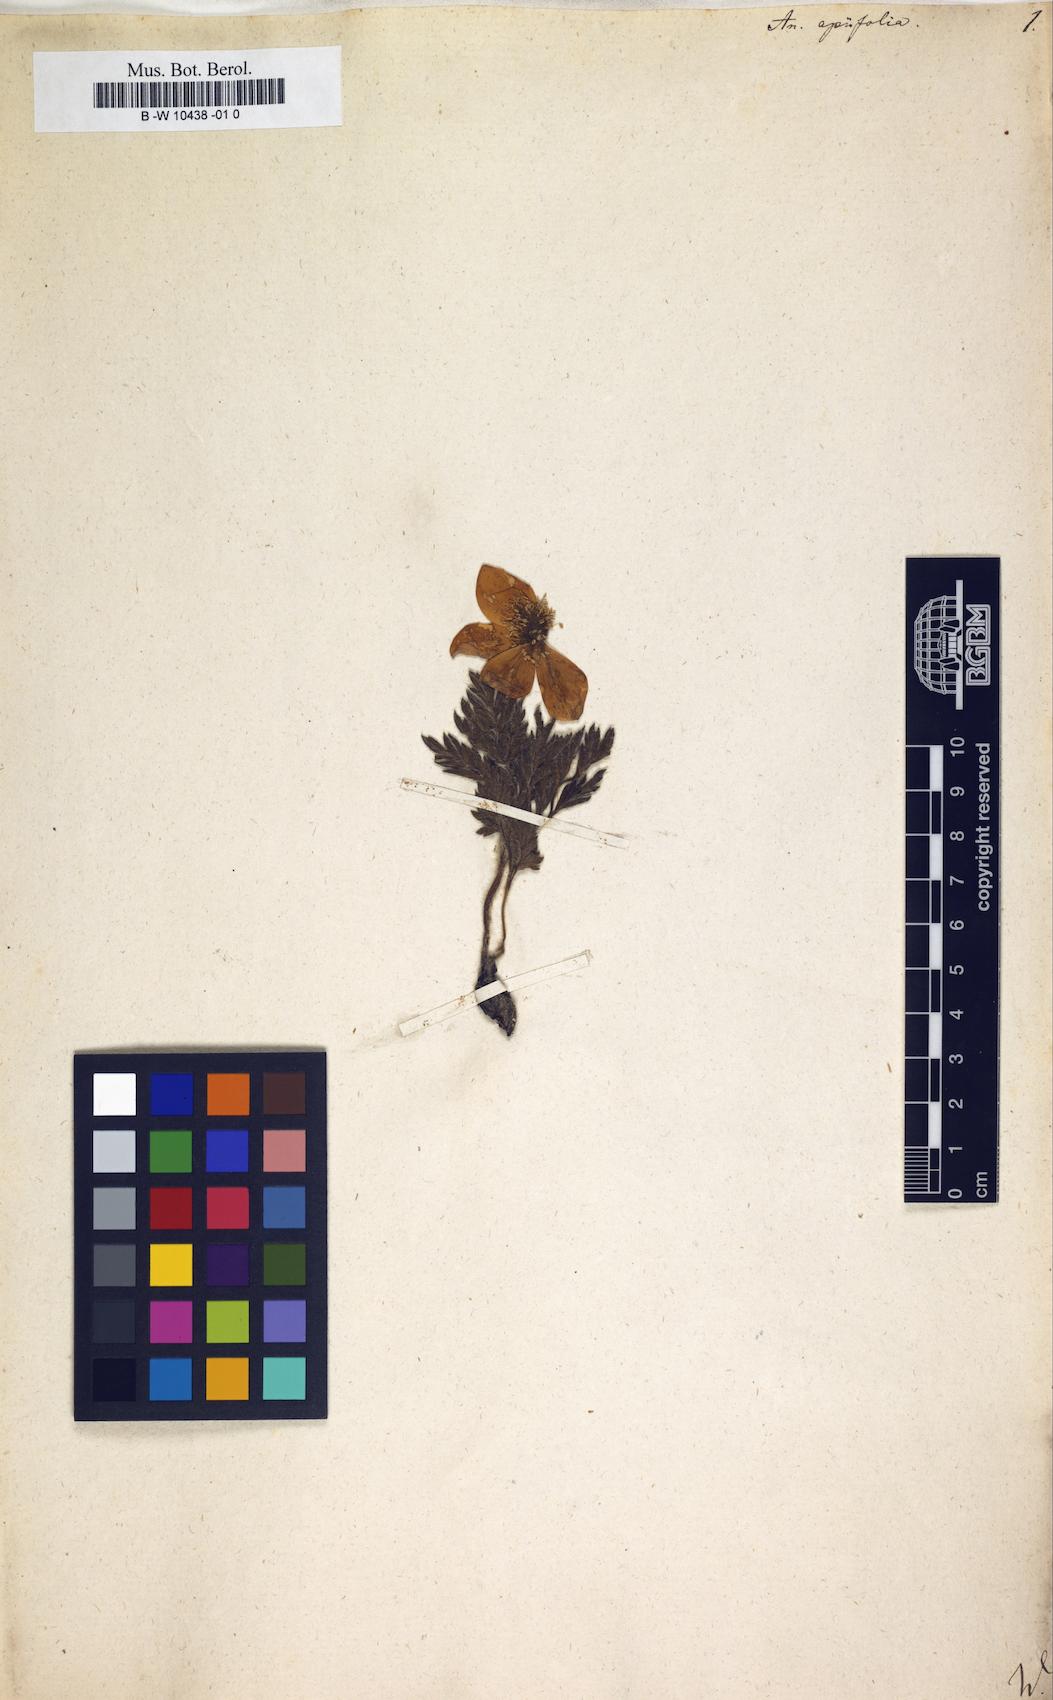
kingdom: Plantae
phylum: Tracheophyta
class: Magnoliopsida
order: Ranunculales
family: Ranunculaceae
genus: Pulsatilla
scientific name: Pulsatilla alpina
